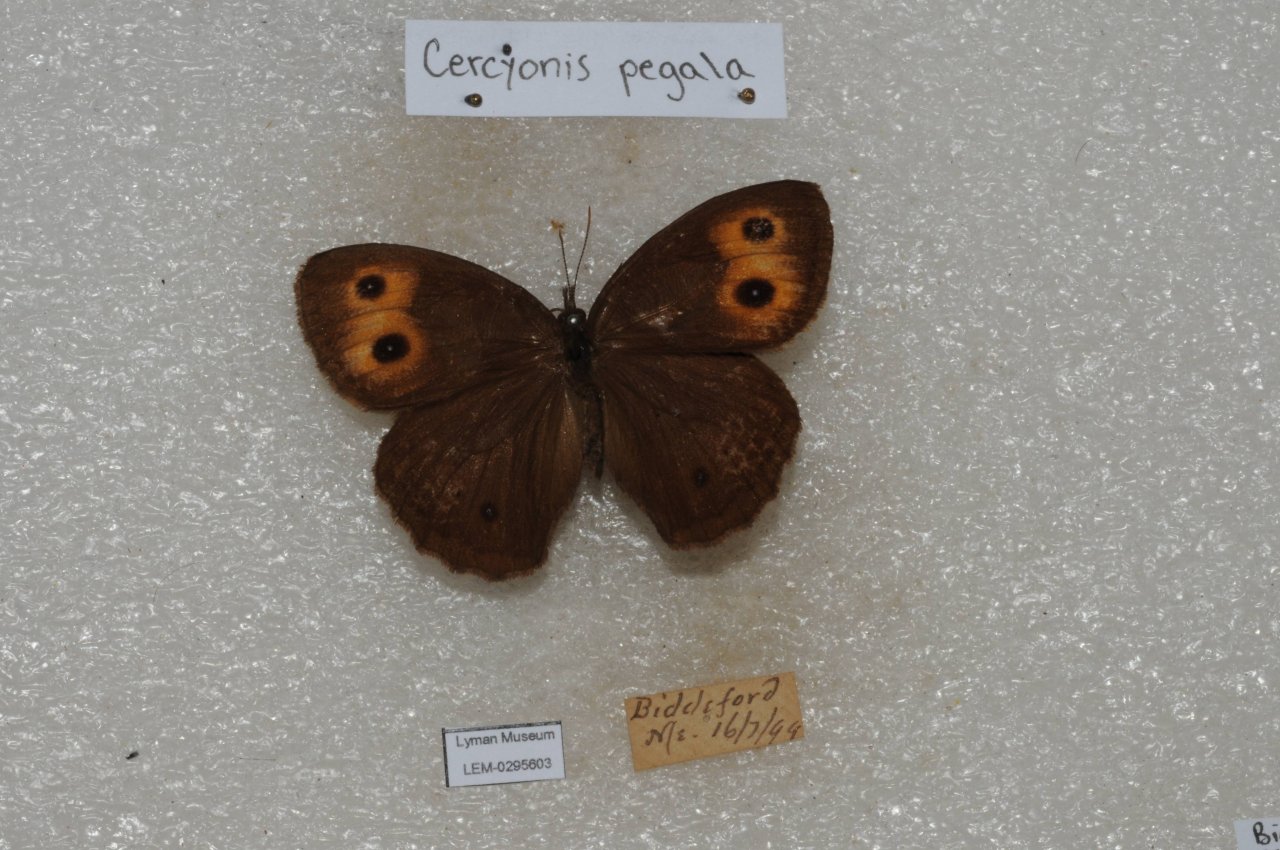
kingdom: Animalia
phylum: Arthropoda
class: Insecta
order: Lepidoptera
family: Nymphalidae
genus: Cercyonis
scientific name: Cercyonis pegala
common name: Common Wood-Nymph
